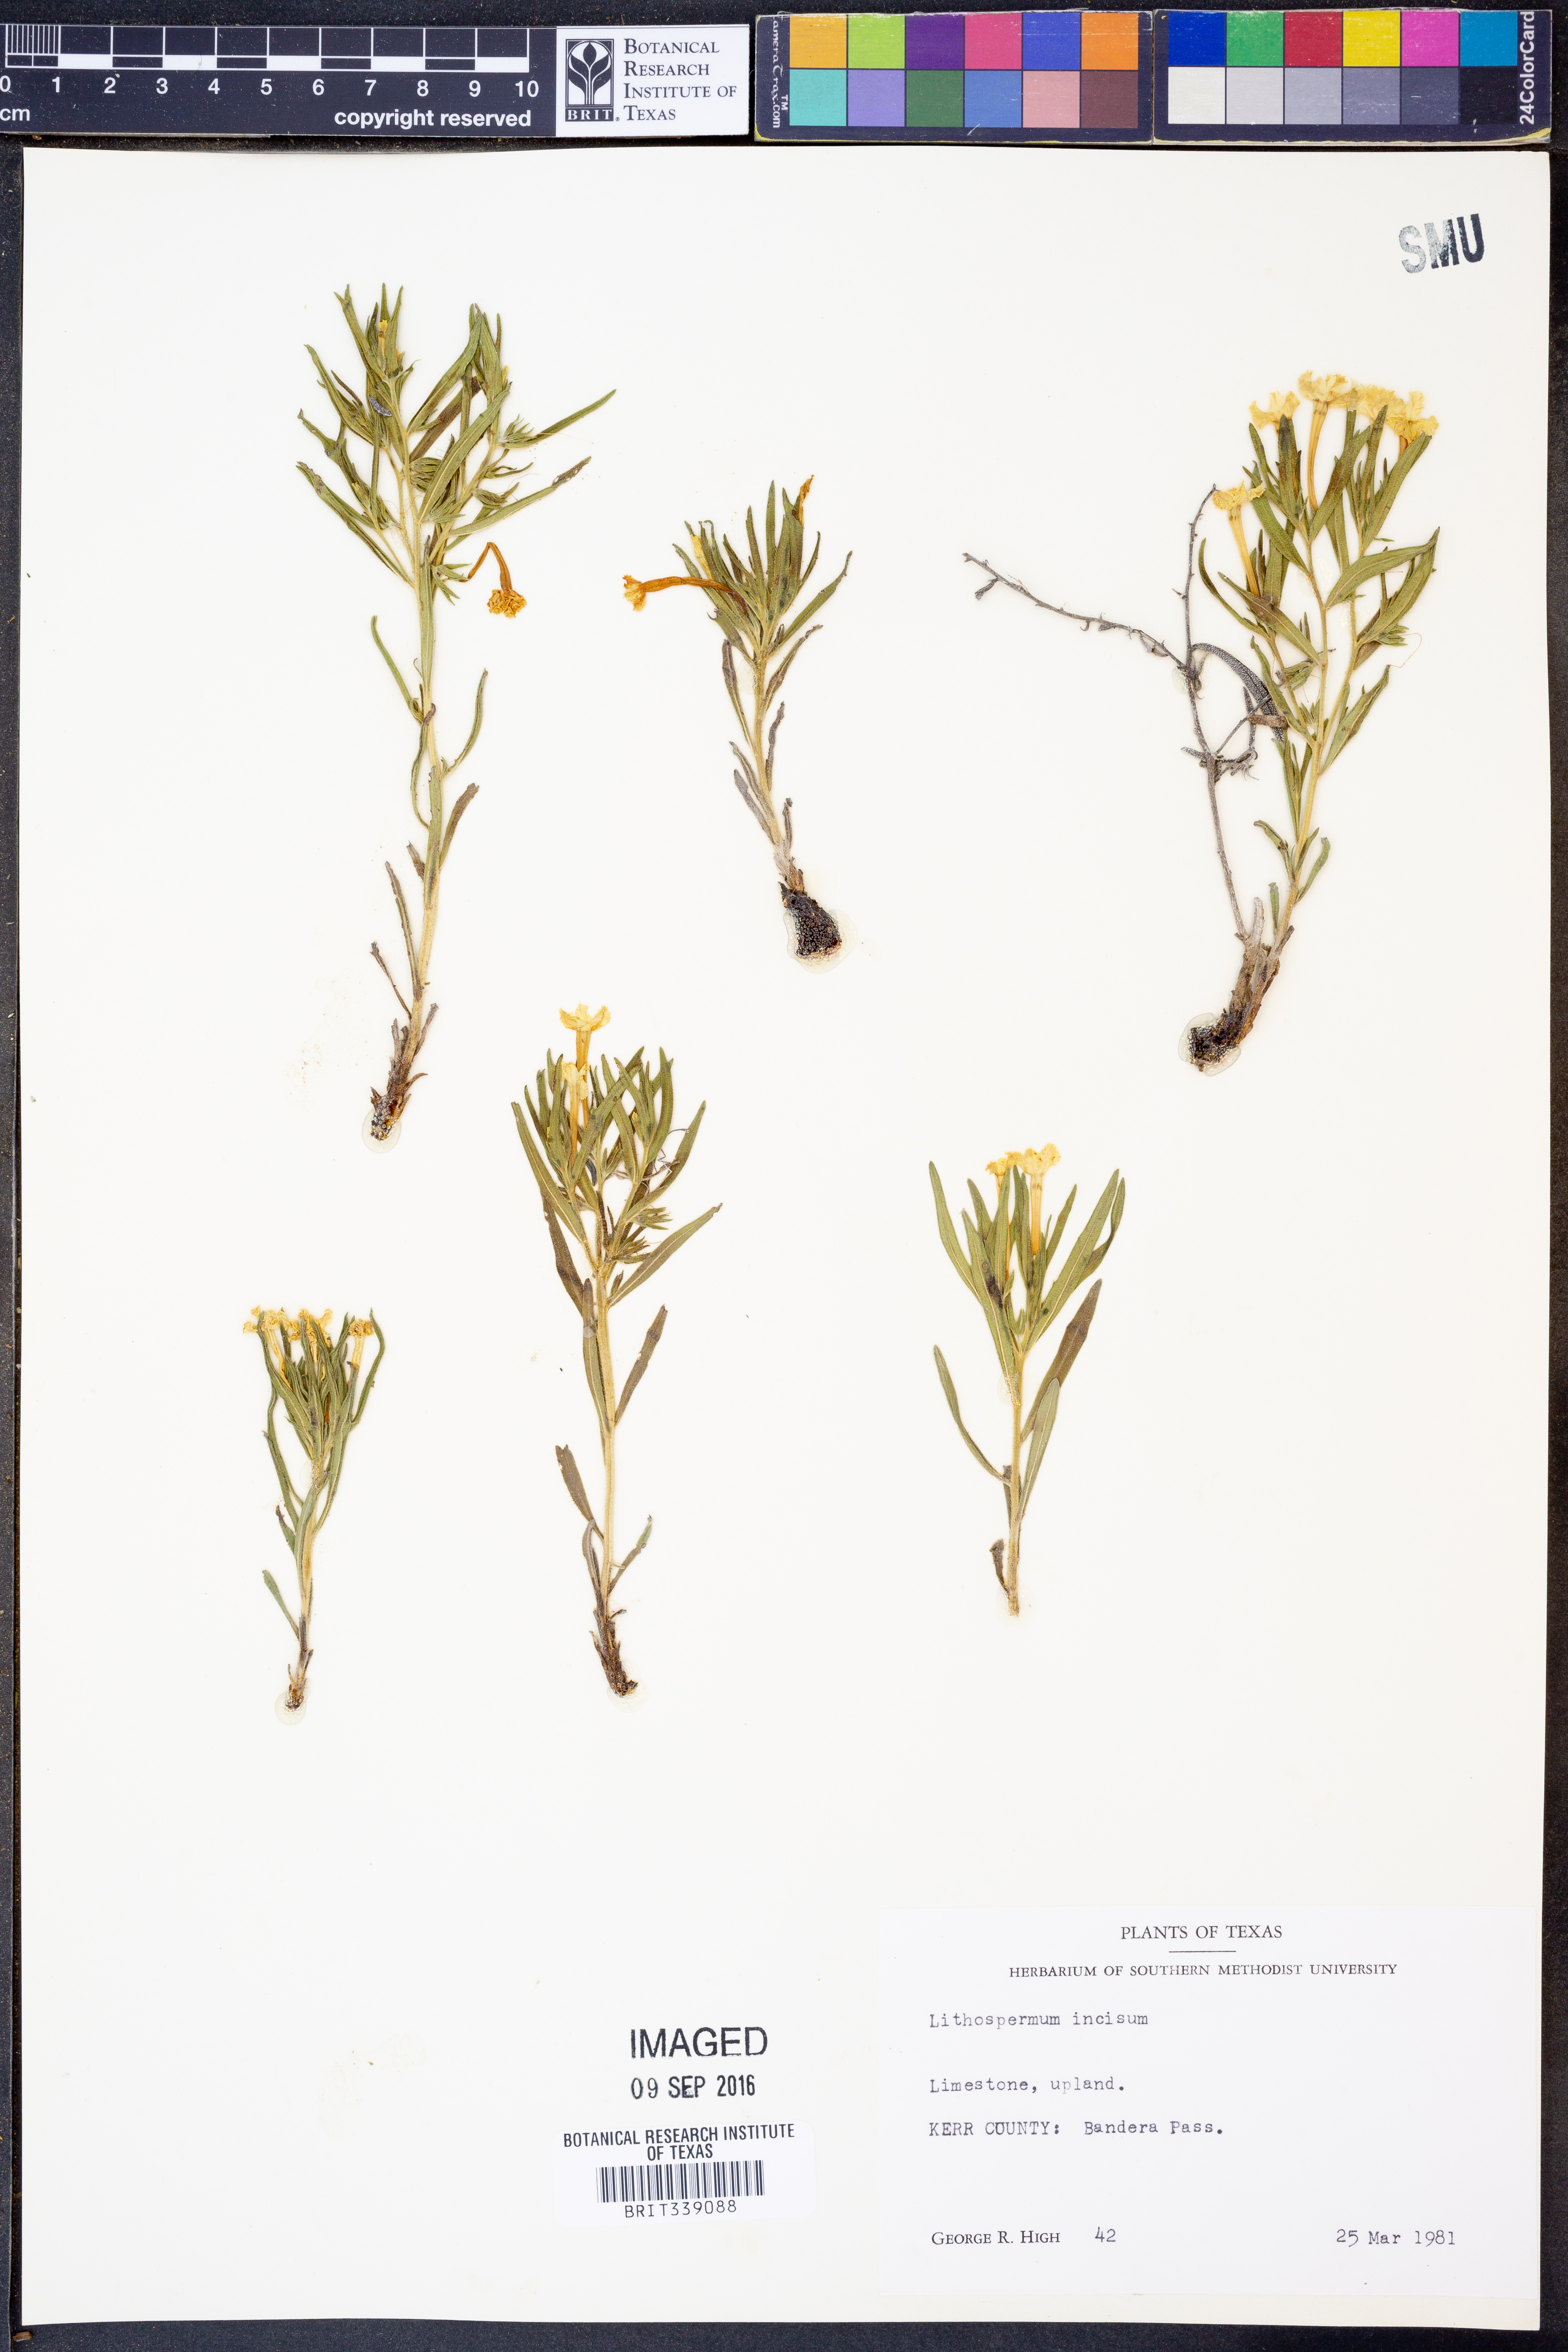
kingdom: Plantae
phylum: Tracheophyta
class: Magnoliopsida
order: Boraginales
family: Boraginaceae
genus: Lithospermum
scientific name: Lithospermum incisum
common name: Fringed gromwell
